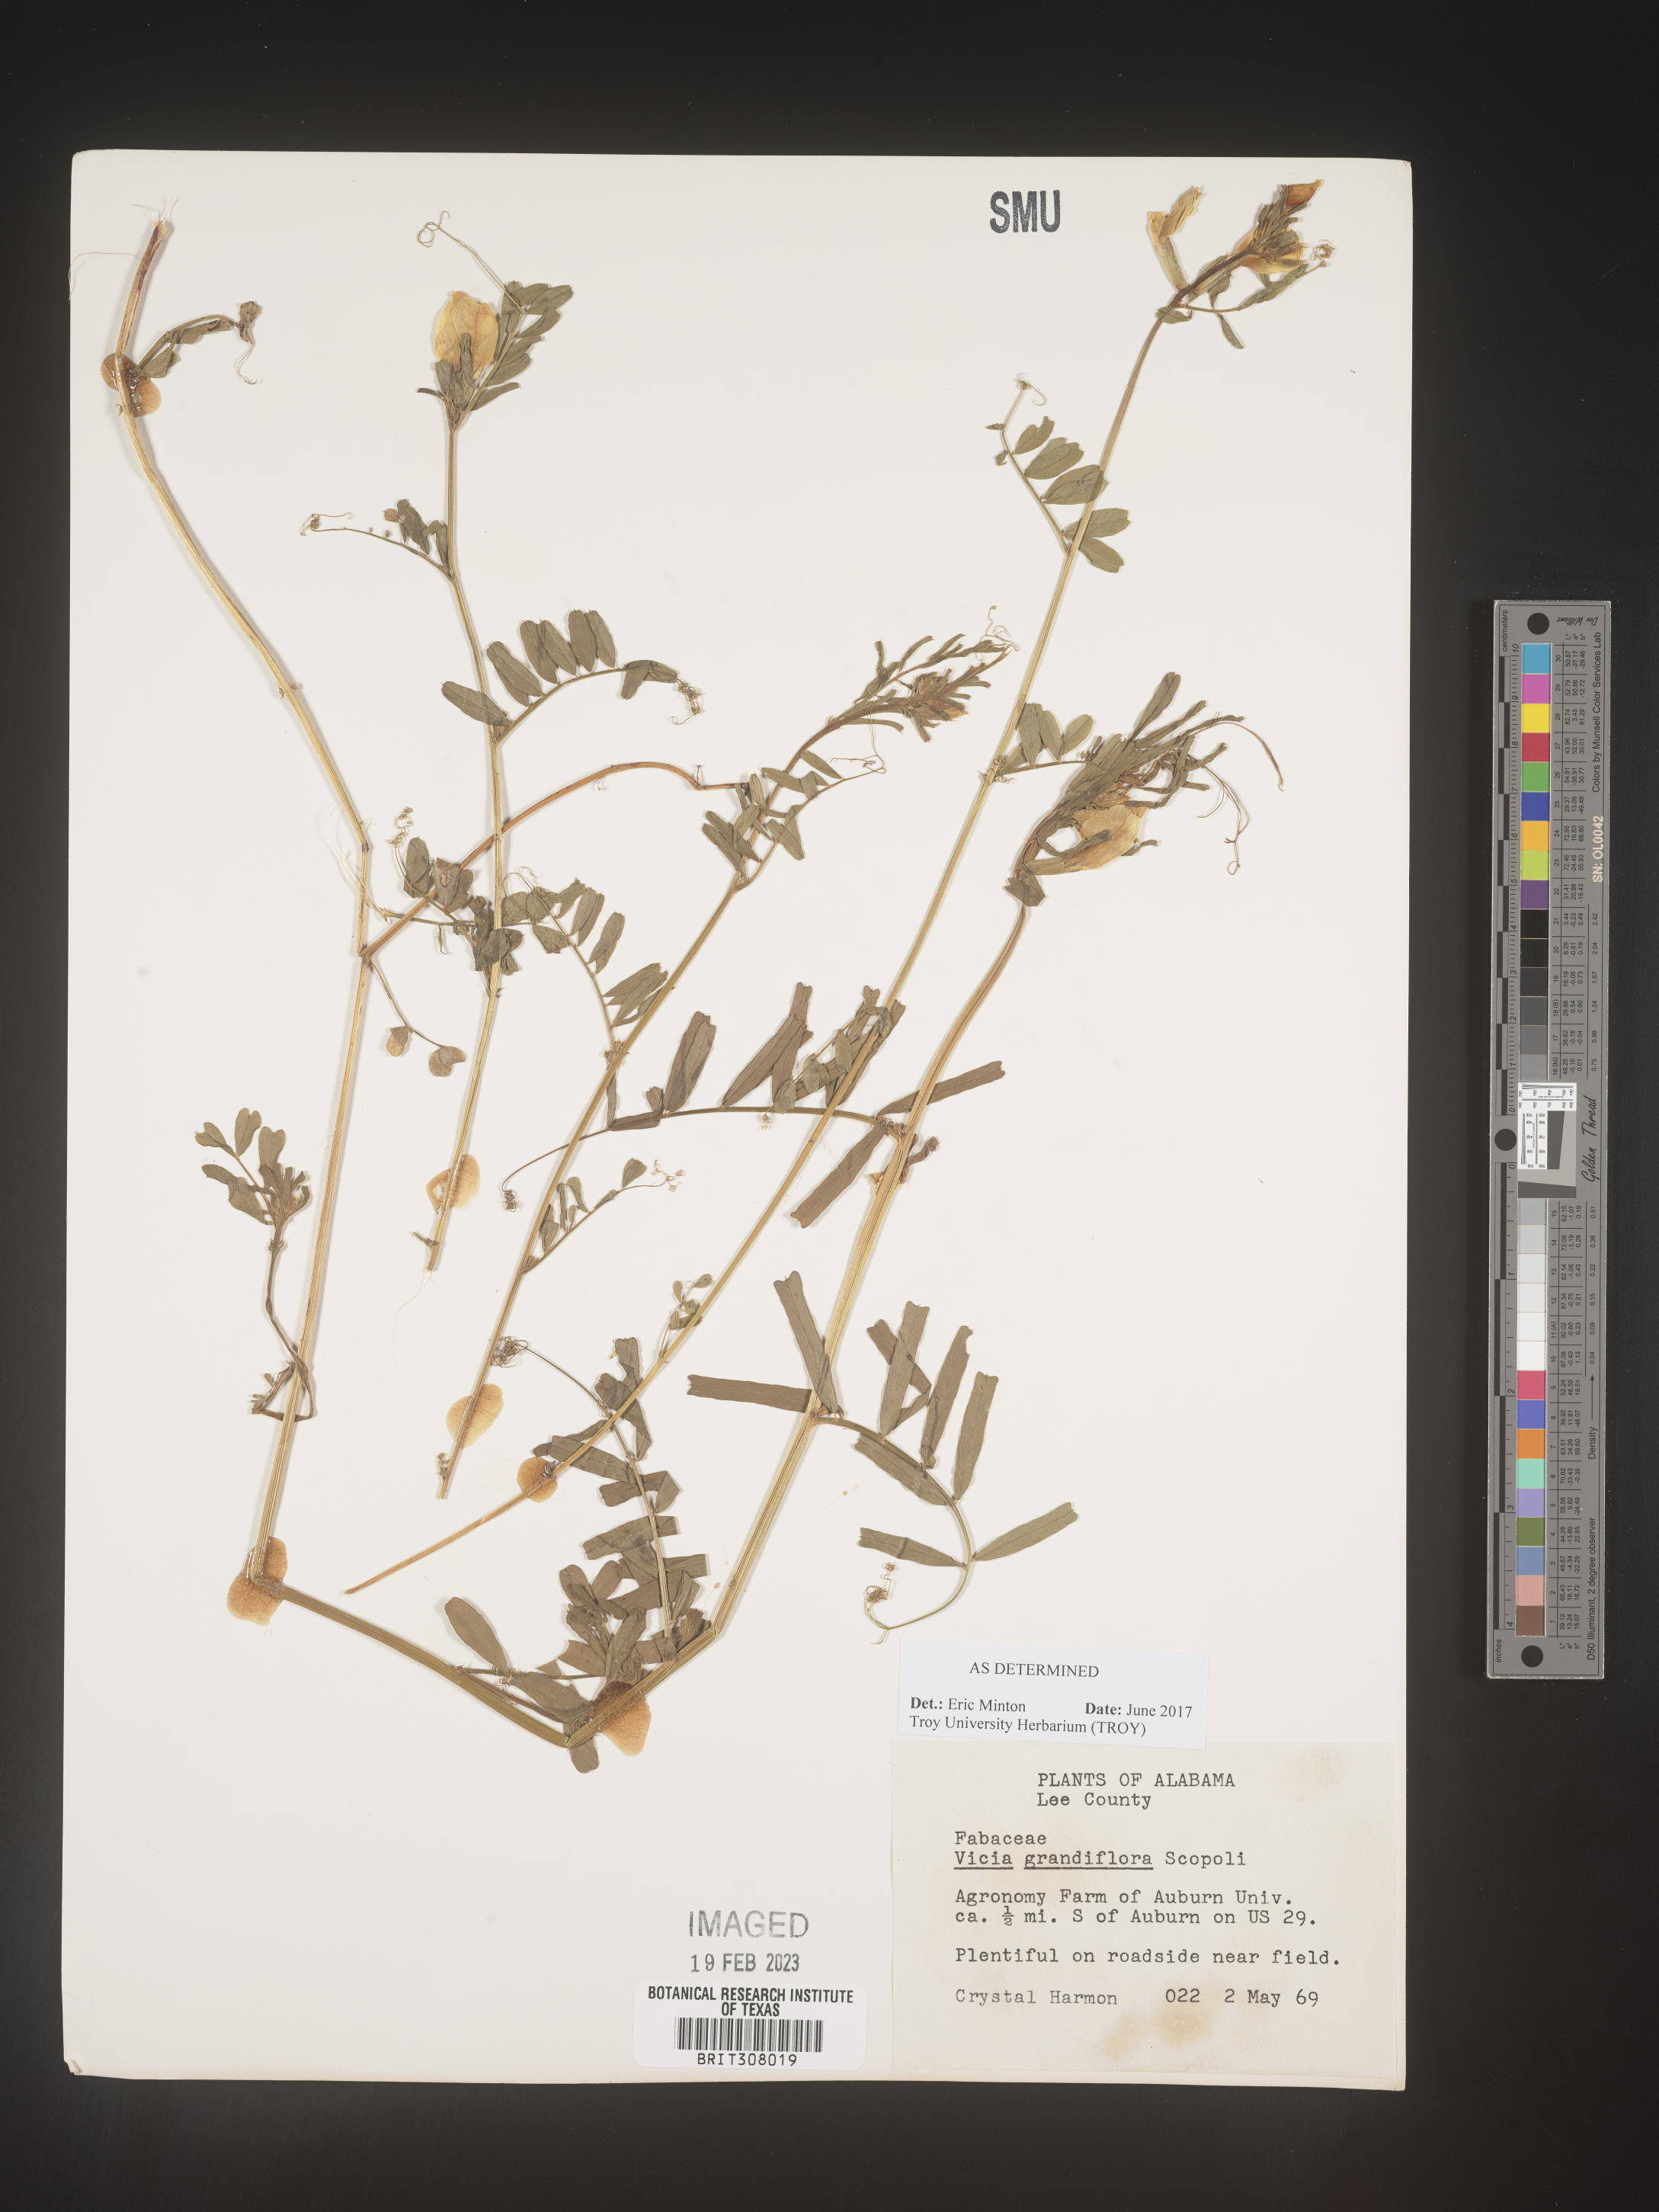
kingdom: Plantae
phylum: Tracheophyta
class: Magnoliopsida
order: Fabales
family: Fabaceae
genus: Vicia
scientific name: Vicia grandiflora
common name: Large yellow vetch
